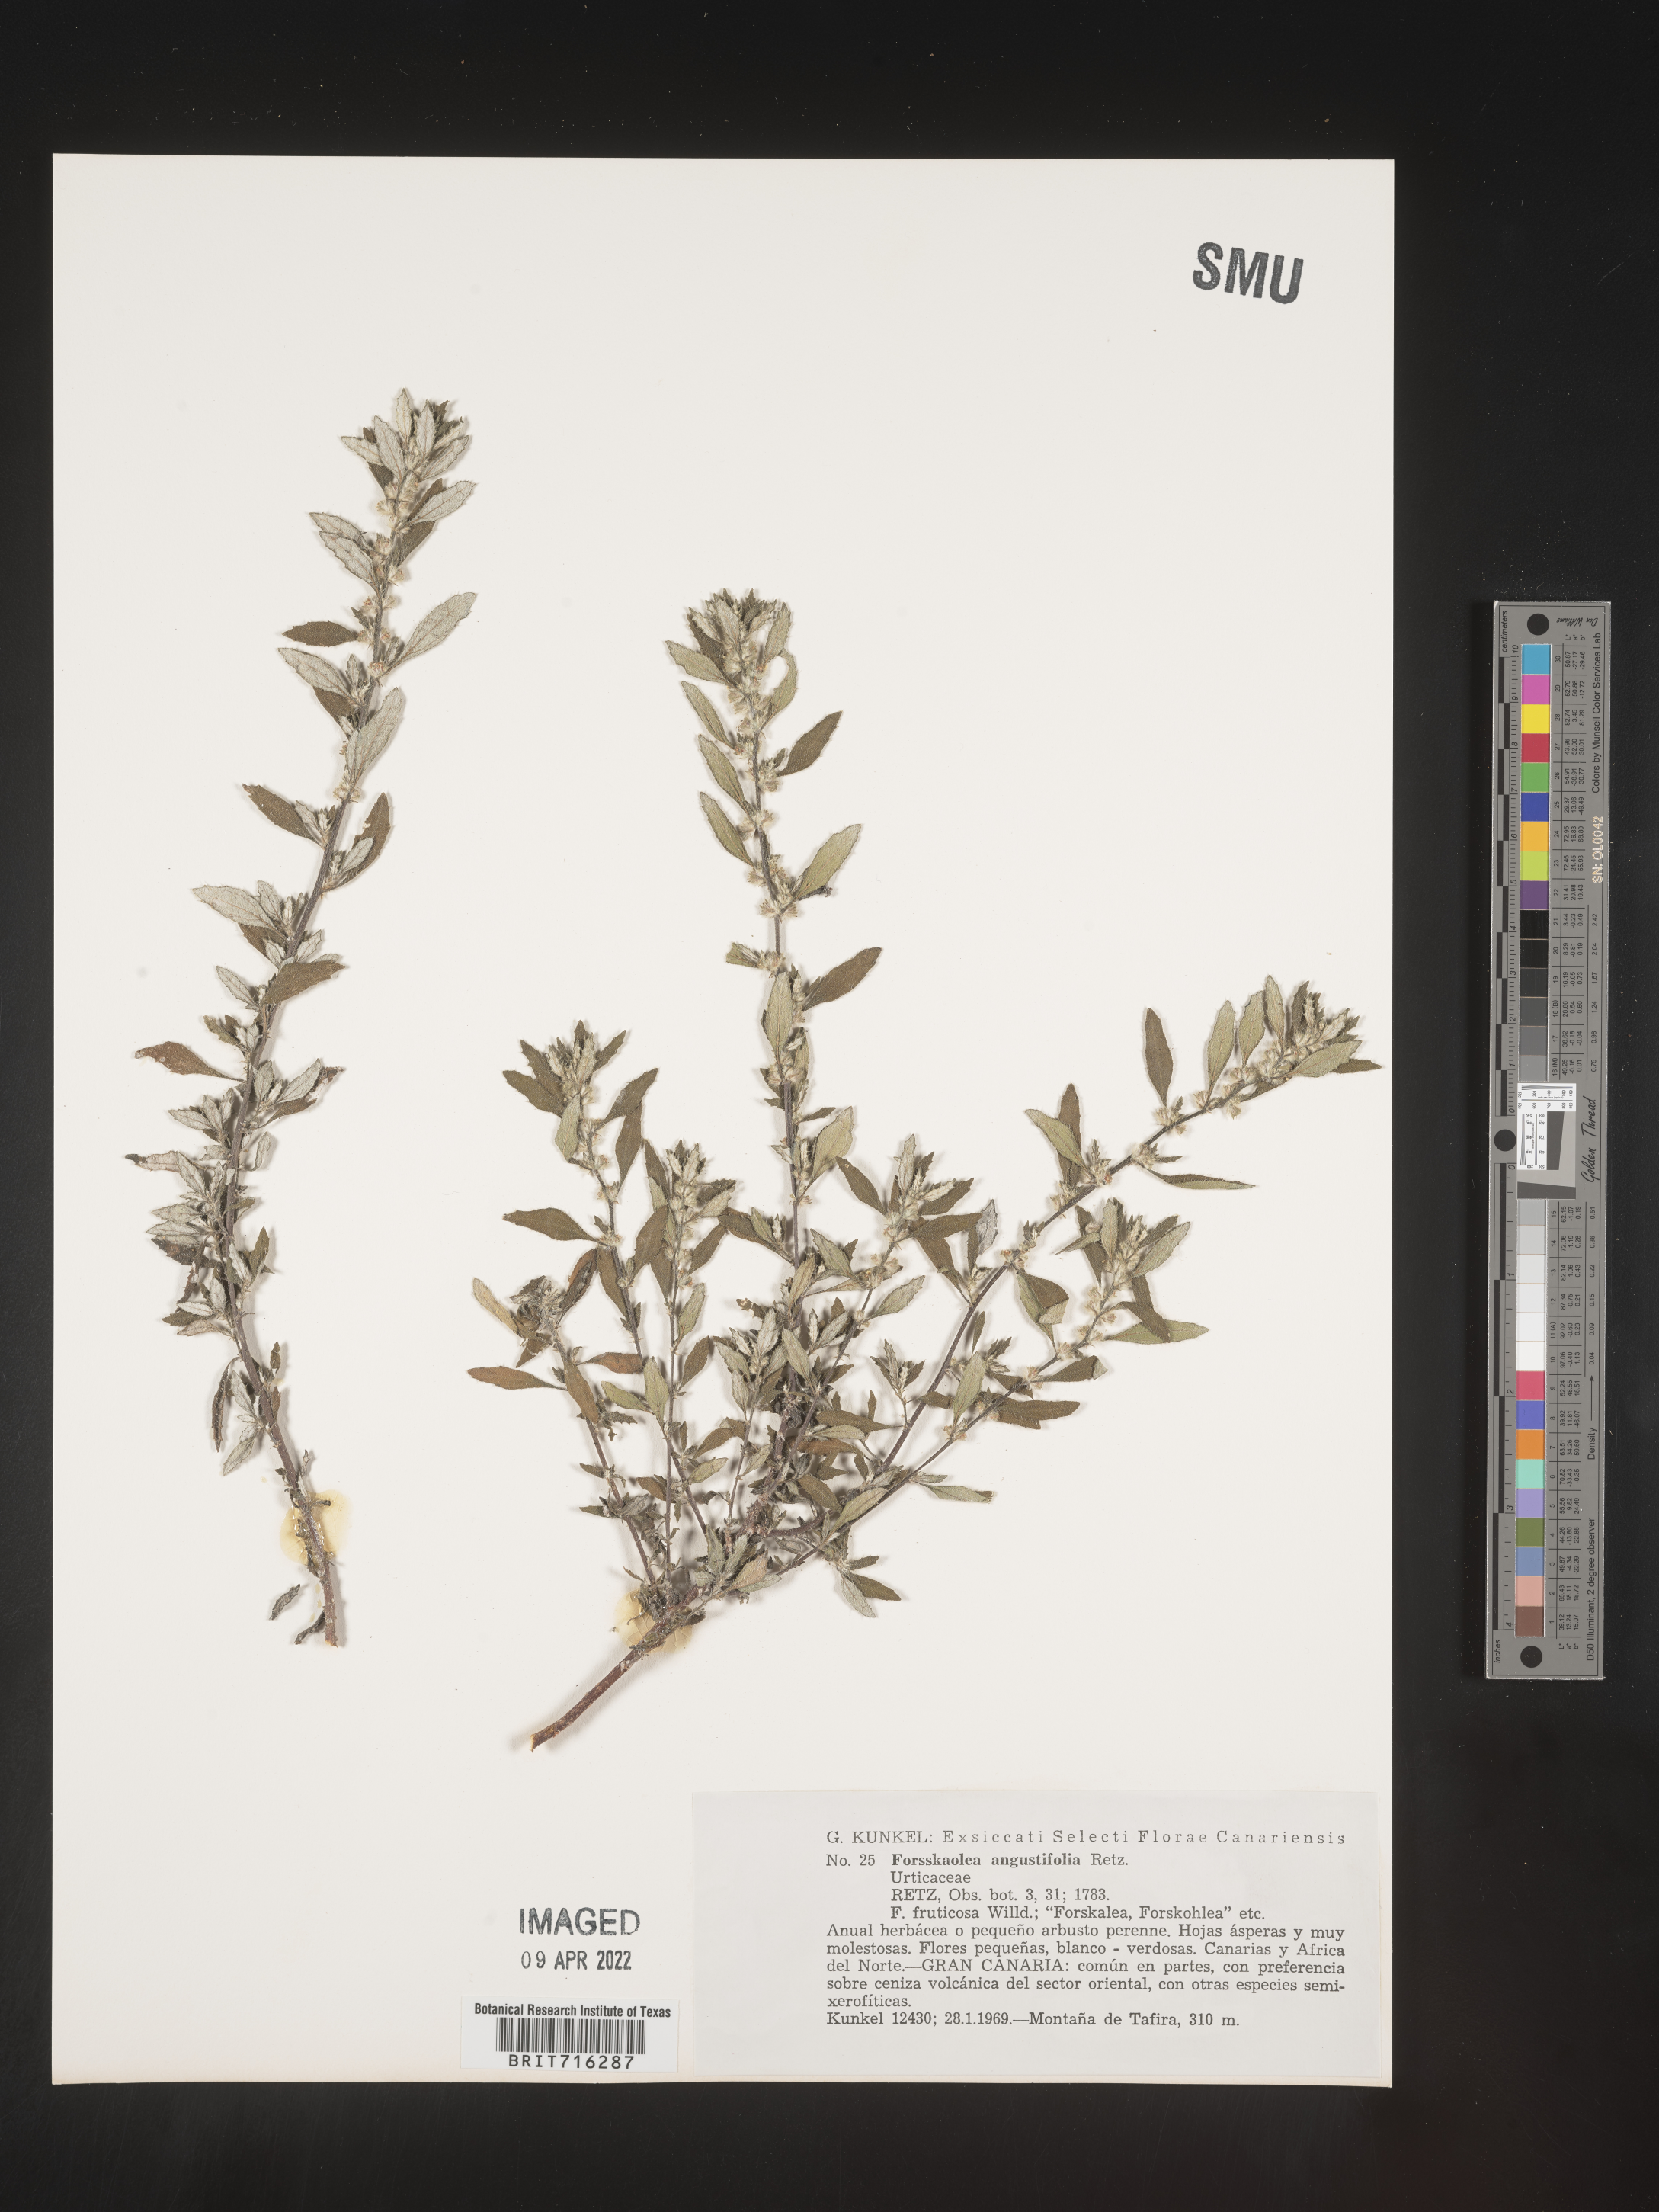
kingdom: Plantae
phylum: Tracheophyta
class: Magnoliopsida
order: Rosales
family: Urticaceae
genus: Forsskaolea
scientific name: Forsskaolea angustifolia
